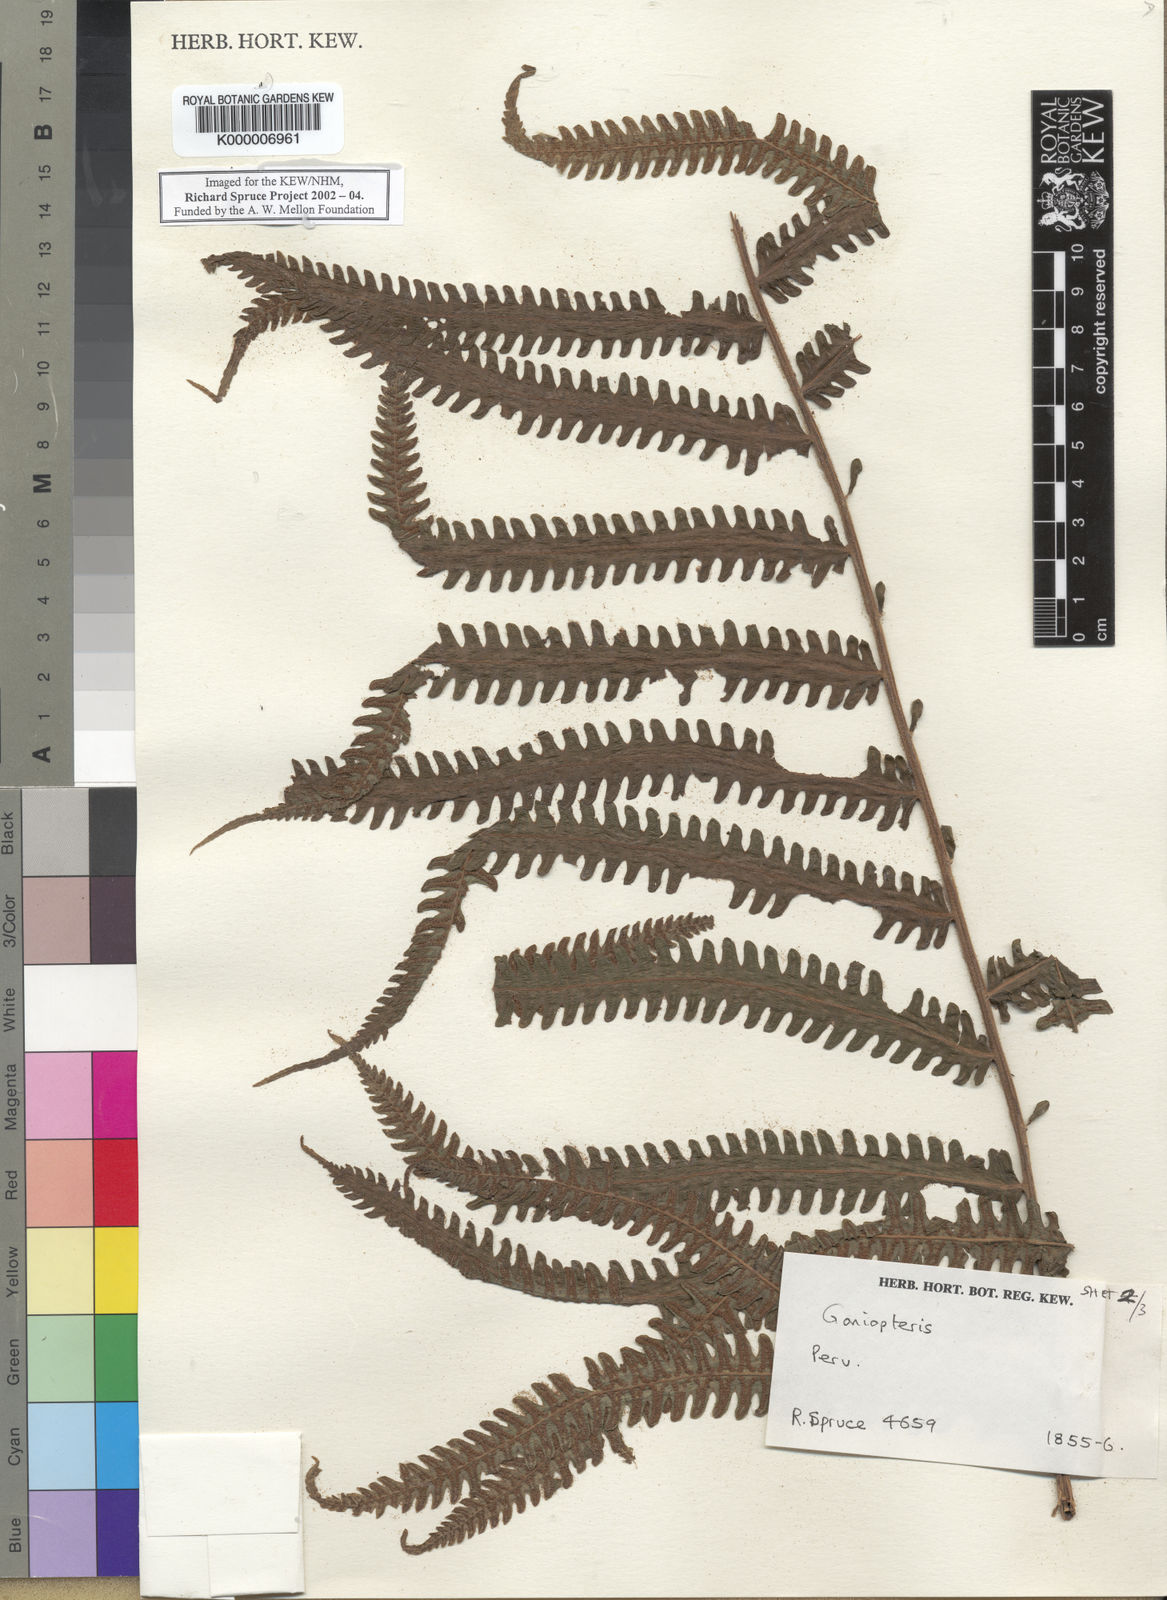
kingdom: Plantae
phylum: Tracheophyta
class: Polypodiopsida
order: Polypodiales
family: Thelypteridaceae
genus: Goniopteris
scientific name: Goniopteris biolleyi
